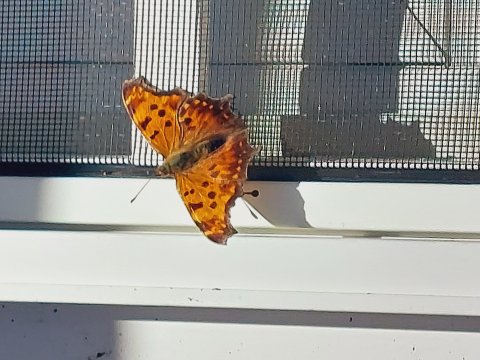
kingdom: Animalia
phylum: Arthropoda
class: Insecta
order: Lepidoptera
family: Nymphalidae
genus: Polygonia
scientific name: Polygonia comma
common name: Eastern Comma
